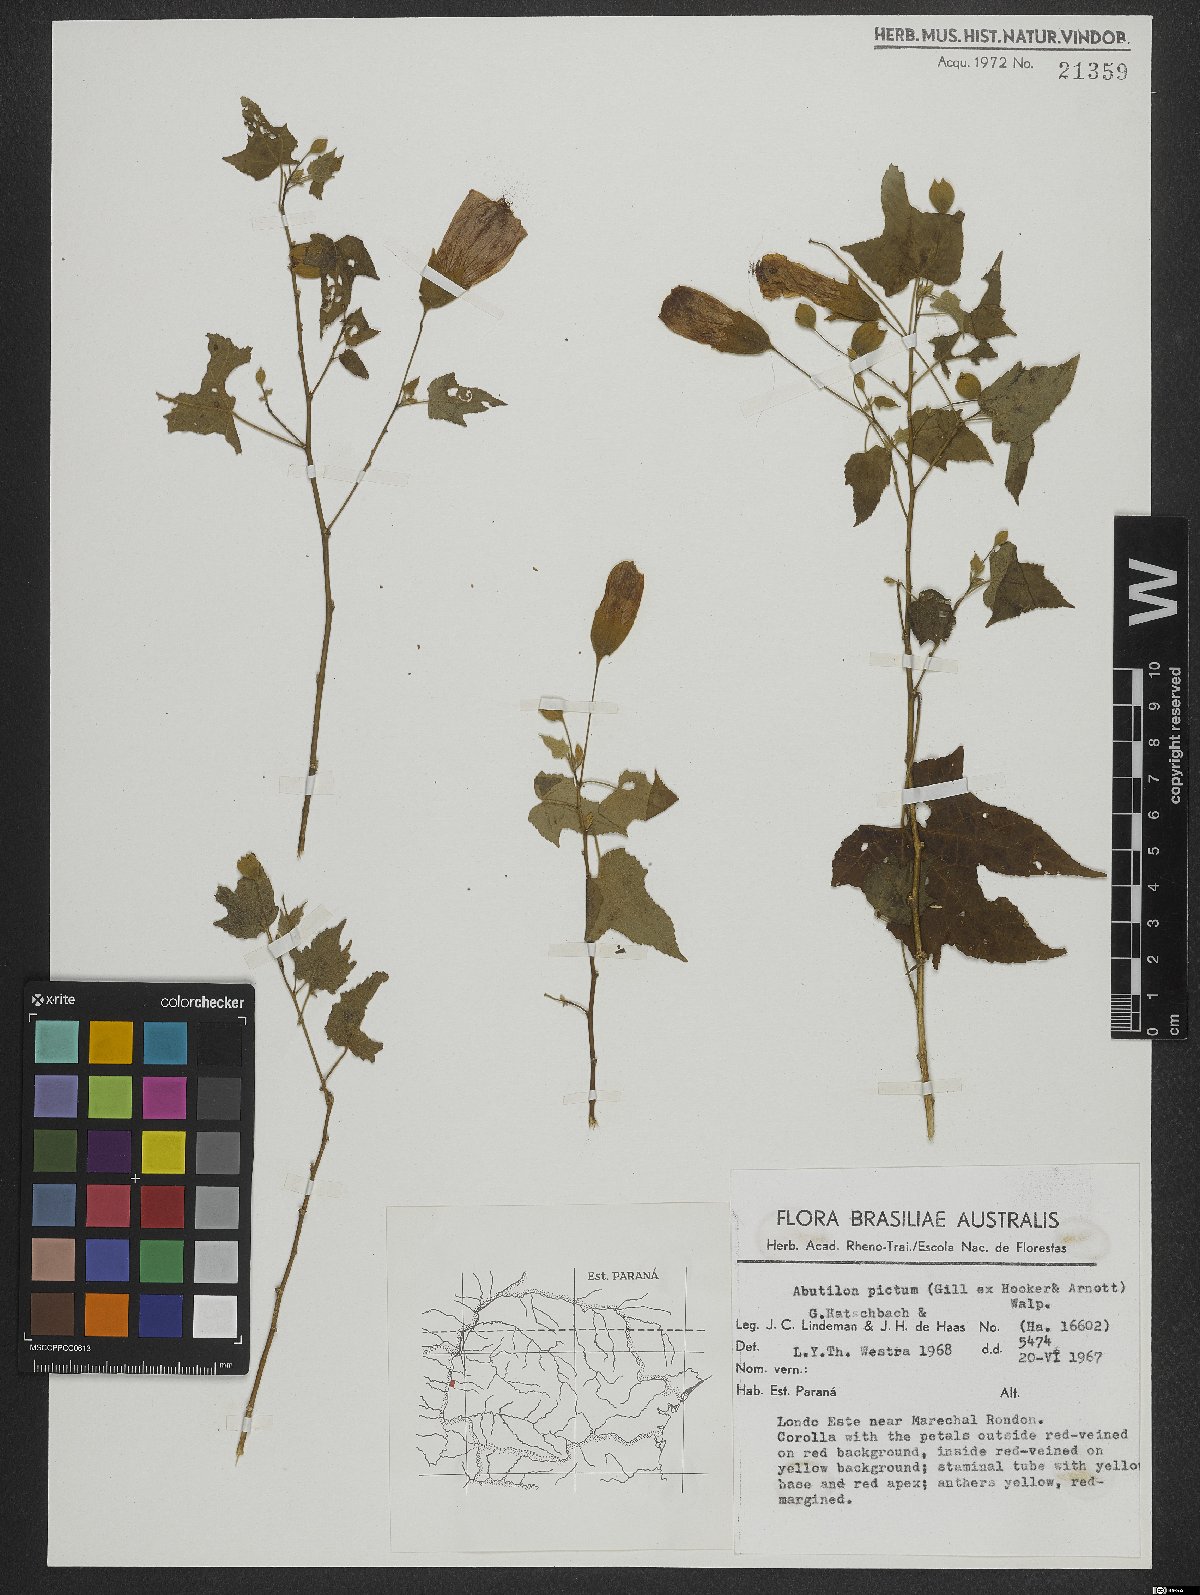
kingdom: Plantae
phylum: Tracheophyta
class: Magnoliopsida
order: Malvales
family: Malvaceae
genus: Callianthe
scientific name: Callianthe picta
